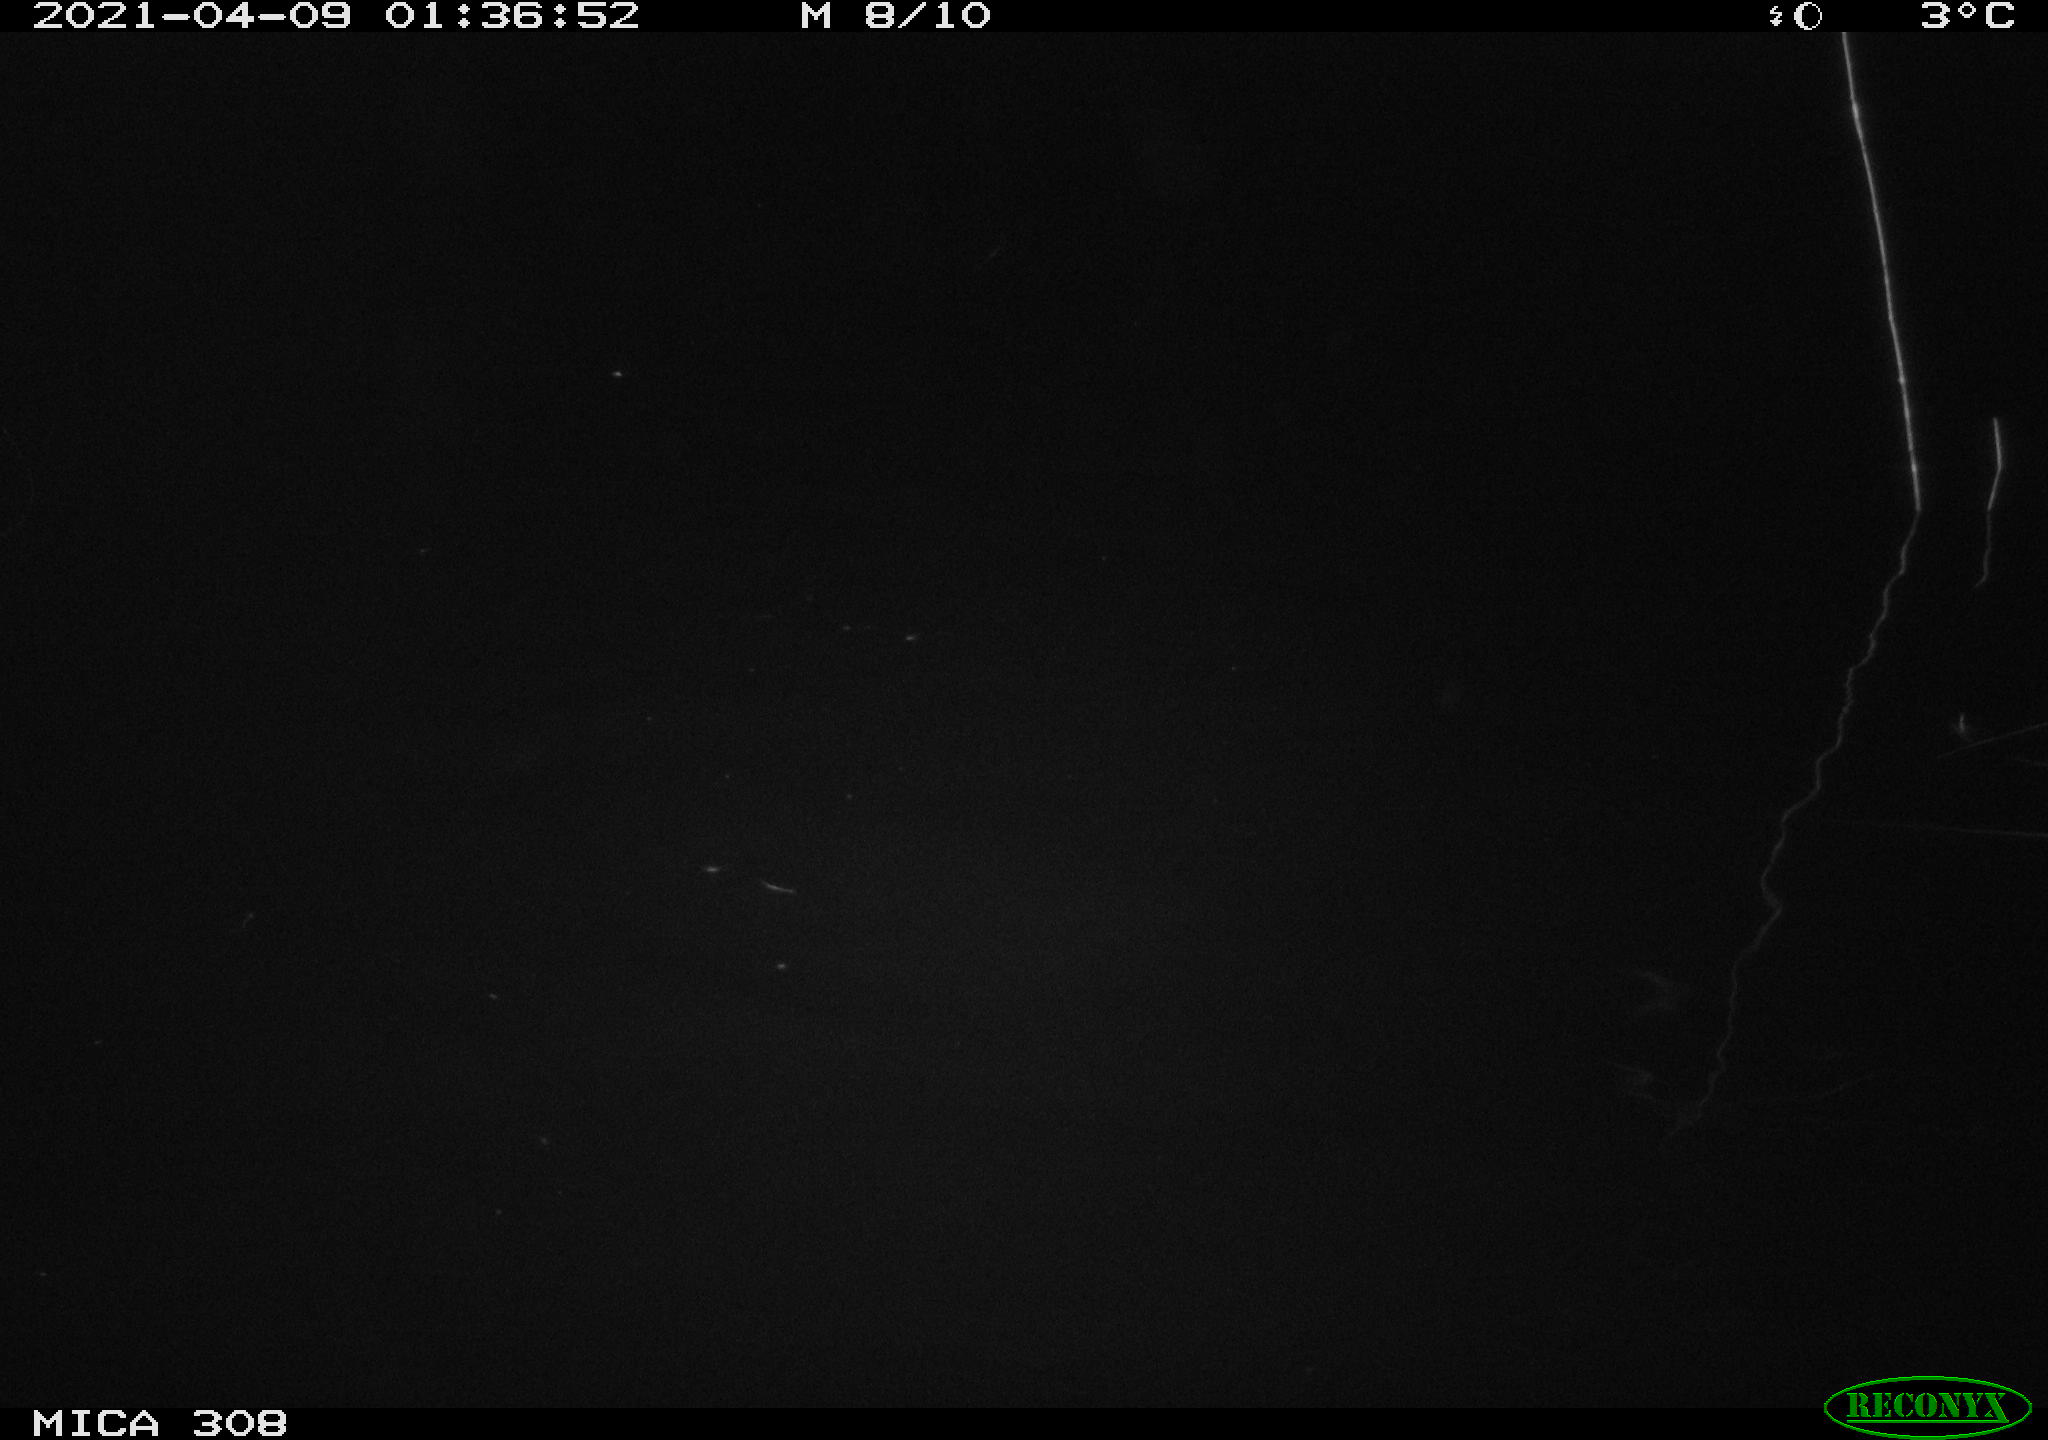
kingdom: Animalia
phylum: Chordata
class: Aves
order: Anseriformes
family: Anatidae
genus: Anas
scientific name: Anas platyrhynchos
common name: Mallard
